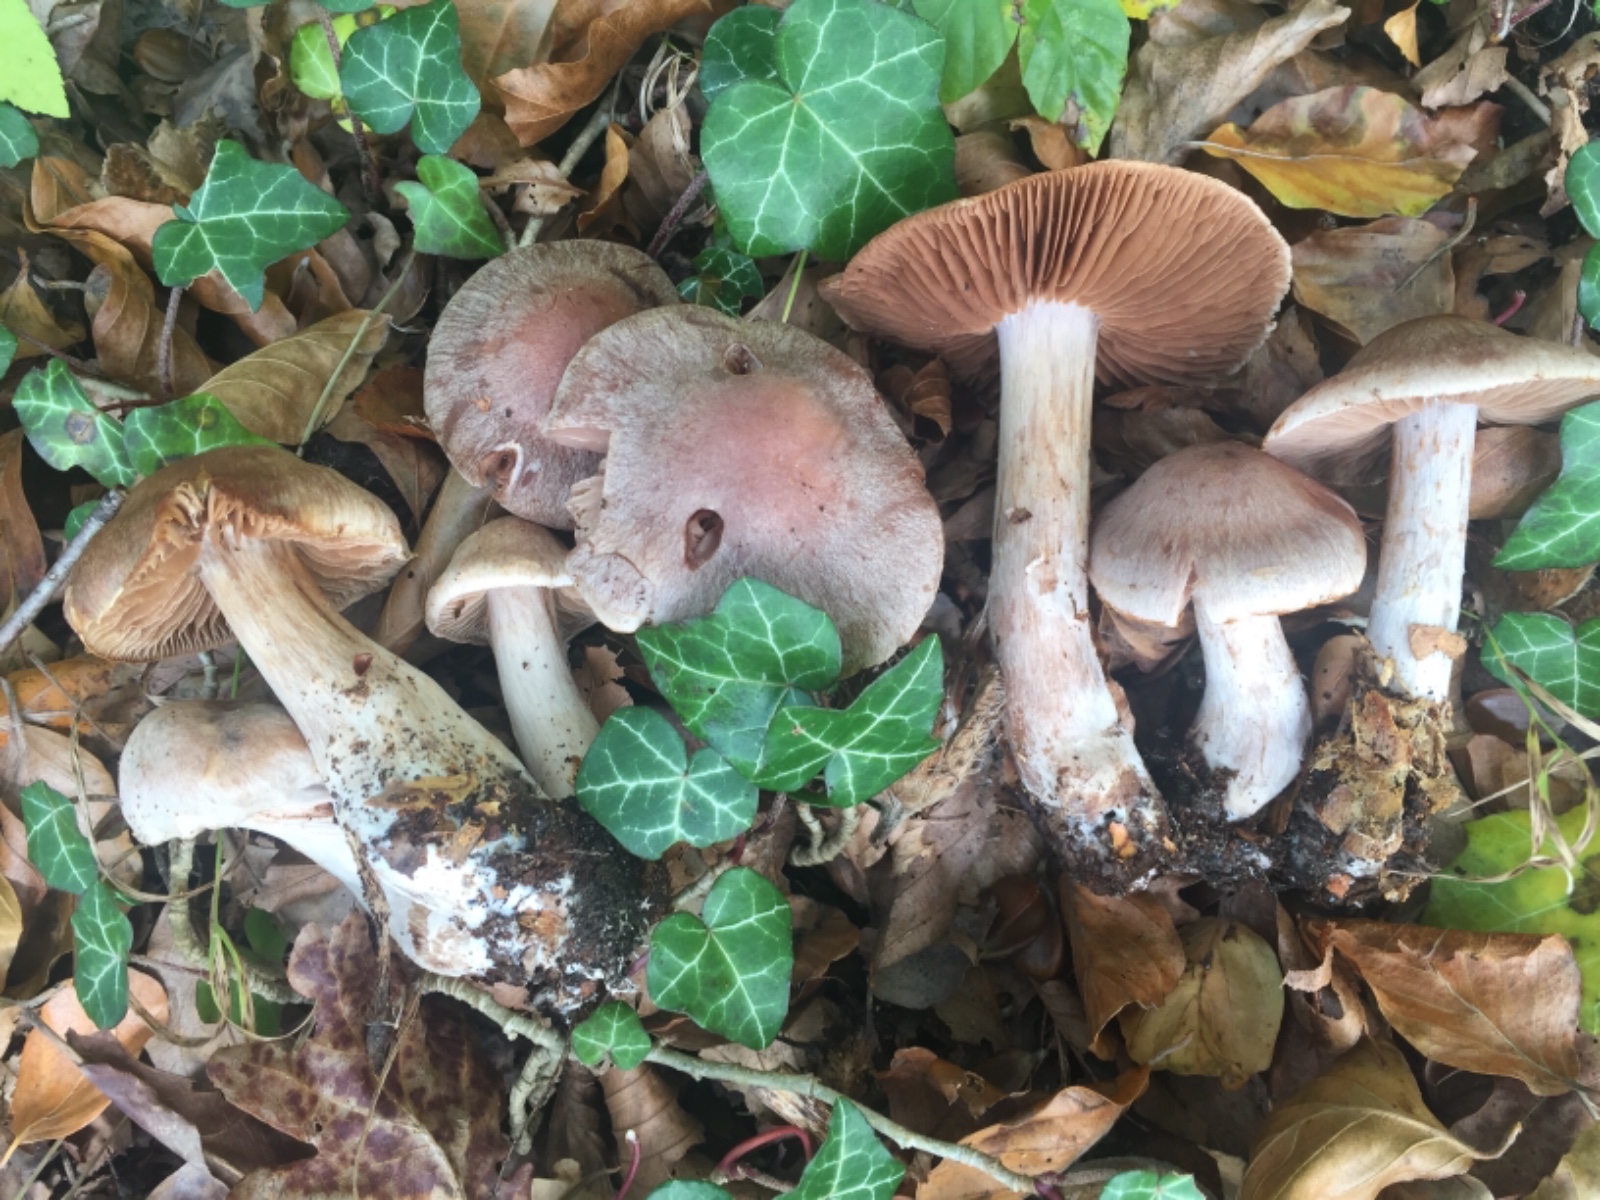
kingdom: Fungi
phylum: Basidiomycota
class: Agaricomycetes
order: Agaricales
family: Cortinariaceae
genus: Cortinarius
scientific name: Cortinarius aleuriodor
